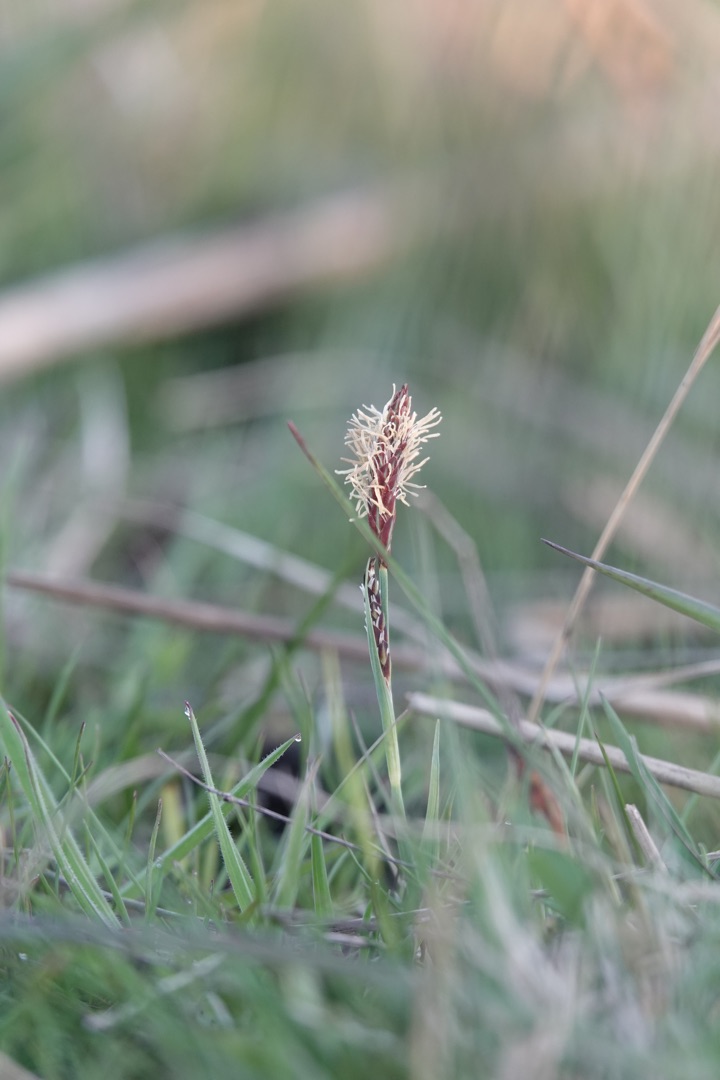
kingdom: Plantae
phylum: Tracheophyta
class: Liliopsida
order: Poales
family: Cyperaceae
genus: Carex
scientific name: Carex panicea
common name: Hirse-star
